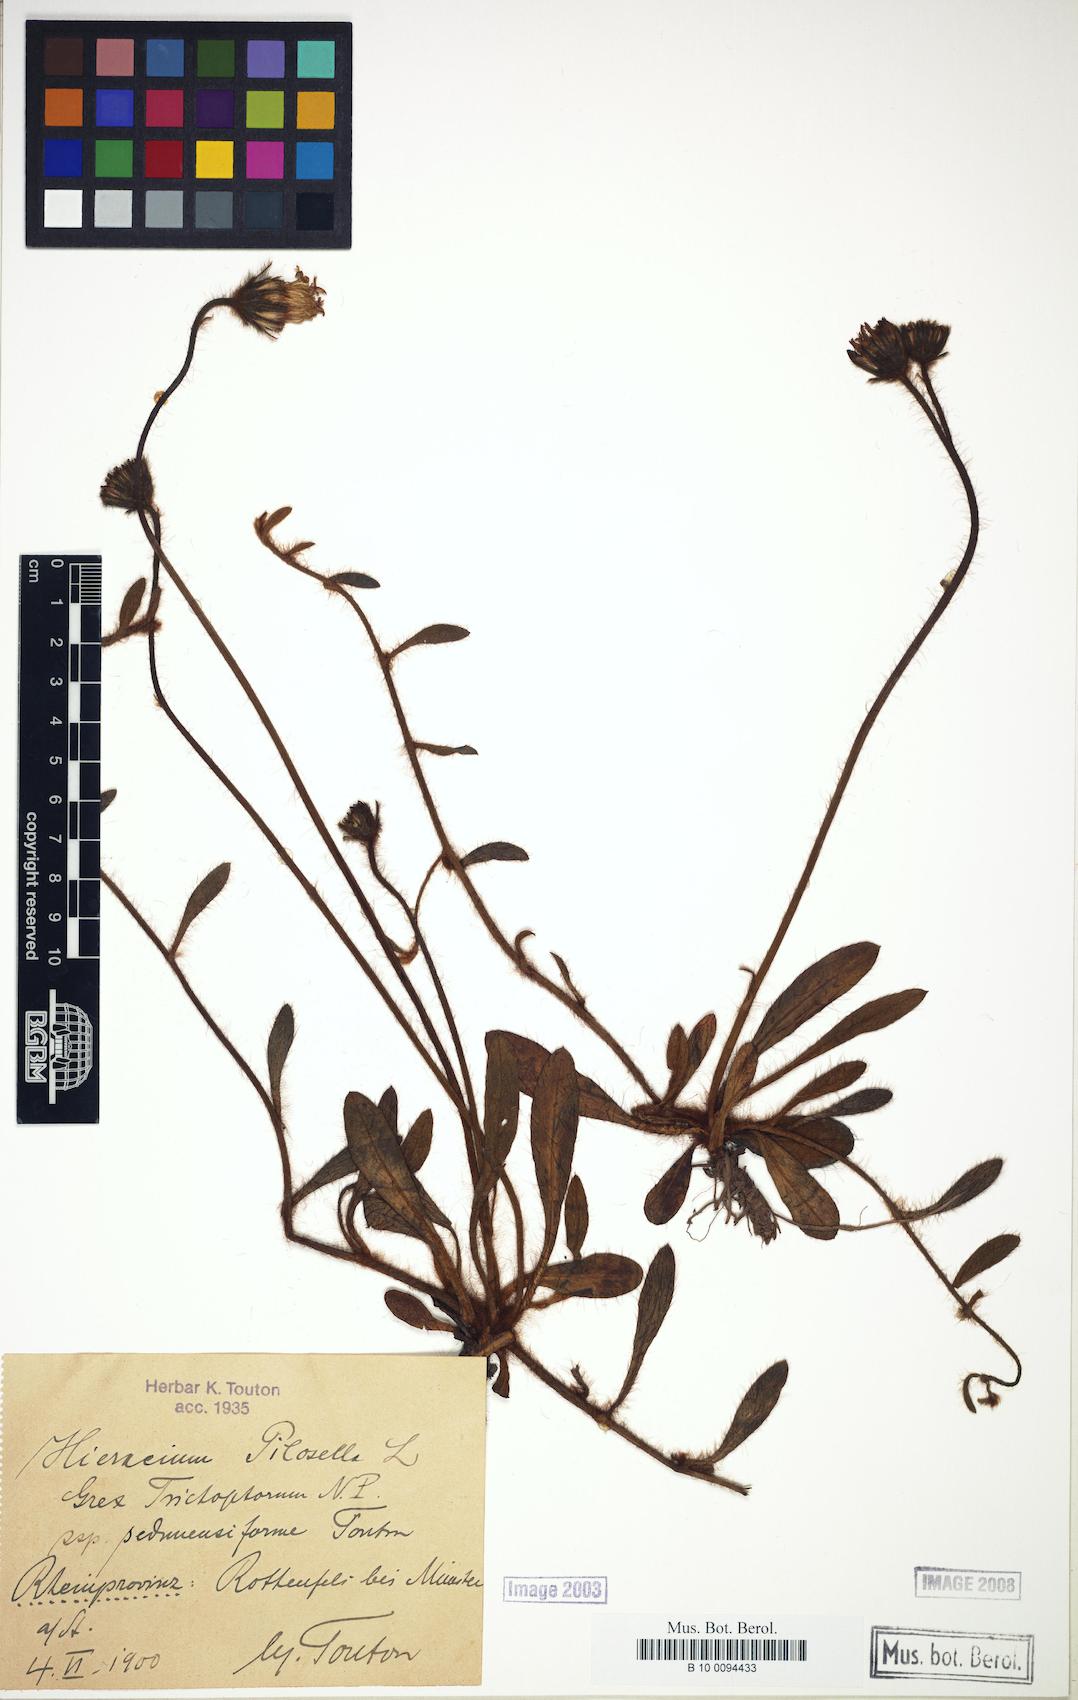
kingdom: Plantae
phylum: Tracheophyta
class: Magnoliopsida
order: Asterales
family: Asteraceae
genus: Pilosella
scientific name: Pilosella officinarum
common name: Mouse-ear hawkweed
